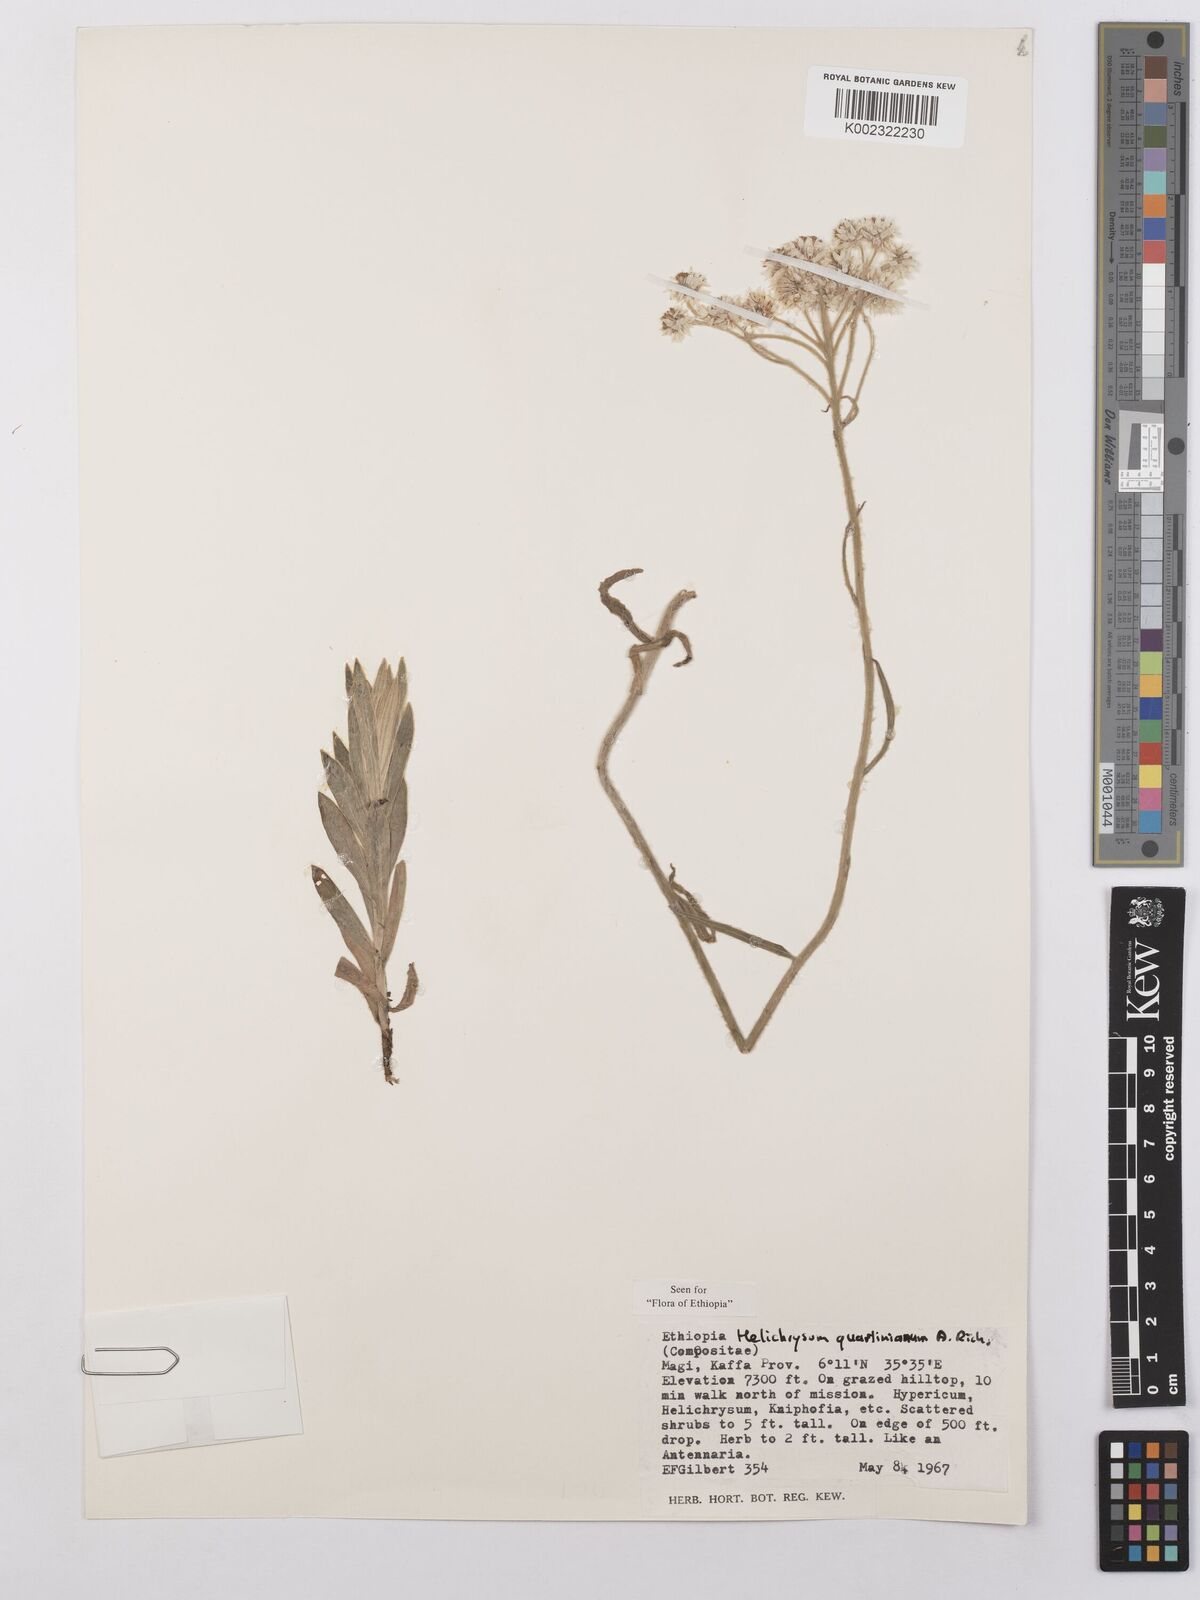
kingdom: Plantae
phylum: Tracheophyta
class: Magnoliopsida
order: Asterales
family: Asteraceae
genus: Helichrysum
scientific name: Helichrysum quartinianum
